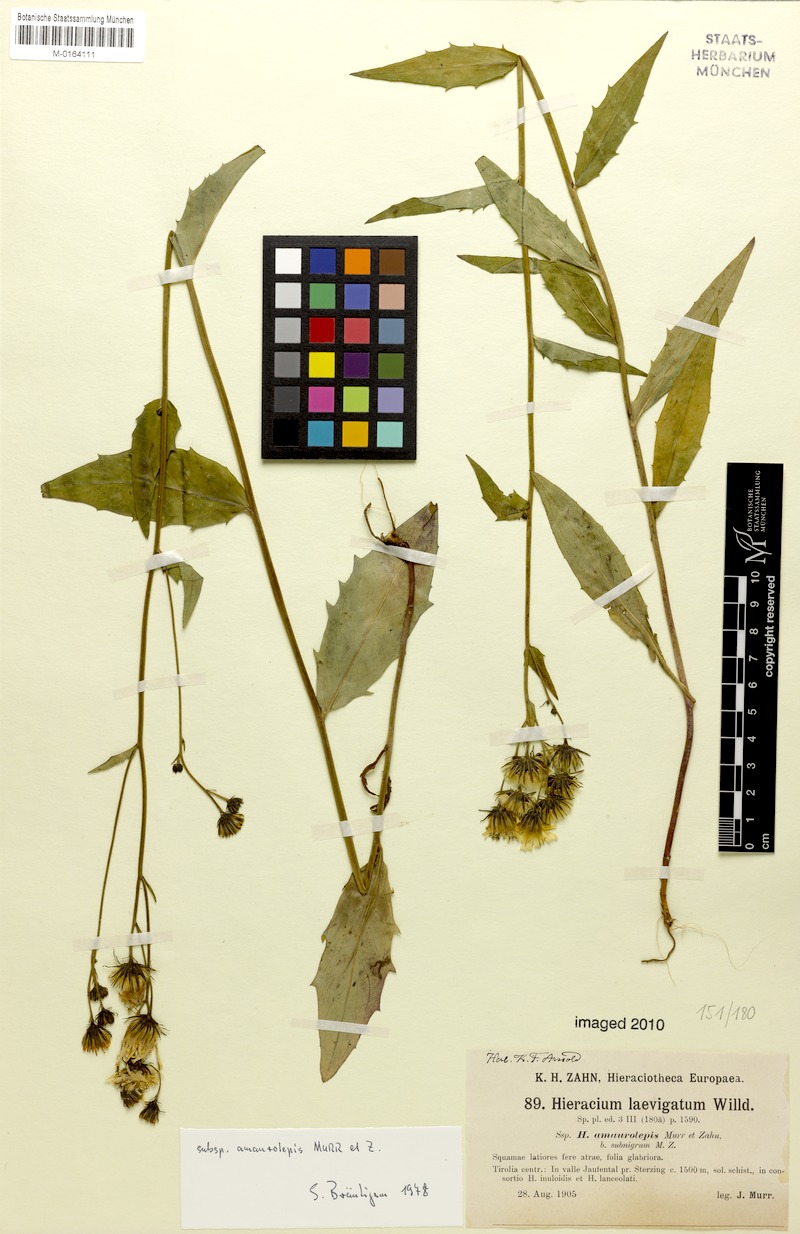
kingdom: Plantae
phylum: Tracheophyta
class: Magnoliopsida
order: Asterales
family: Asteraceae
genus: Hieracium
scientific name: Hieracium laevigatum
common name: Smooth hawkweed
